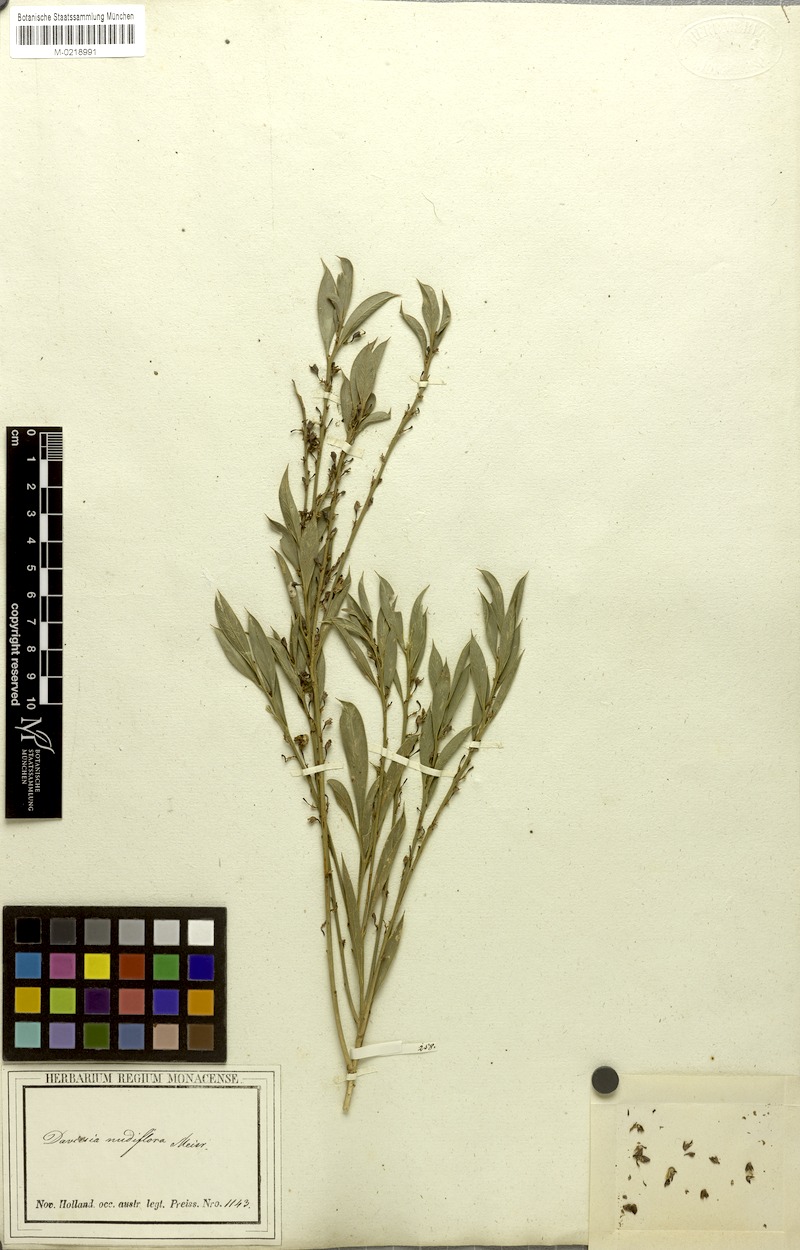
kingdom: Plantae
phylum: Tracheophyta
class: Magnoliopsida
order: Fabales
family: Fabaceae
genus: Daviesia
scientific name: Daviesia nudiflora
